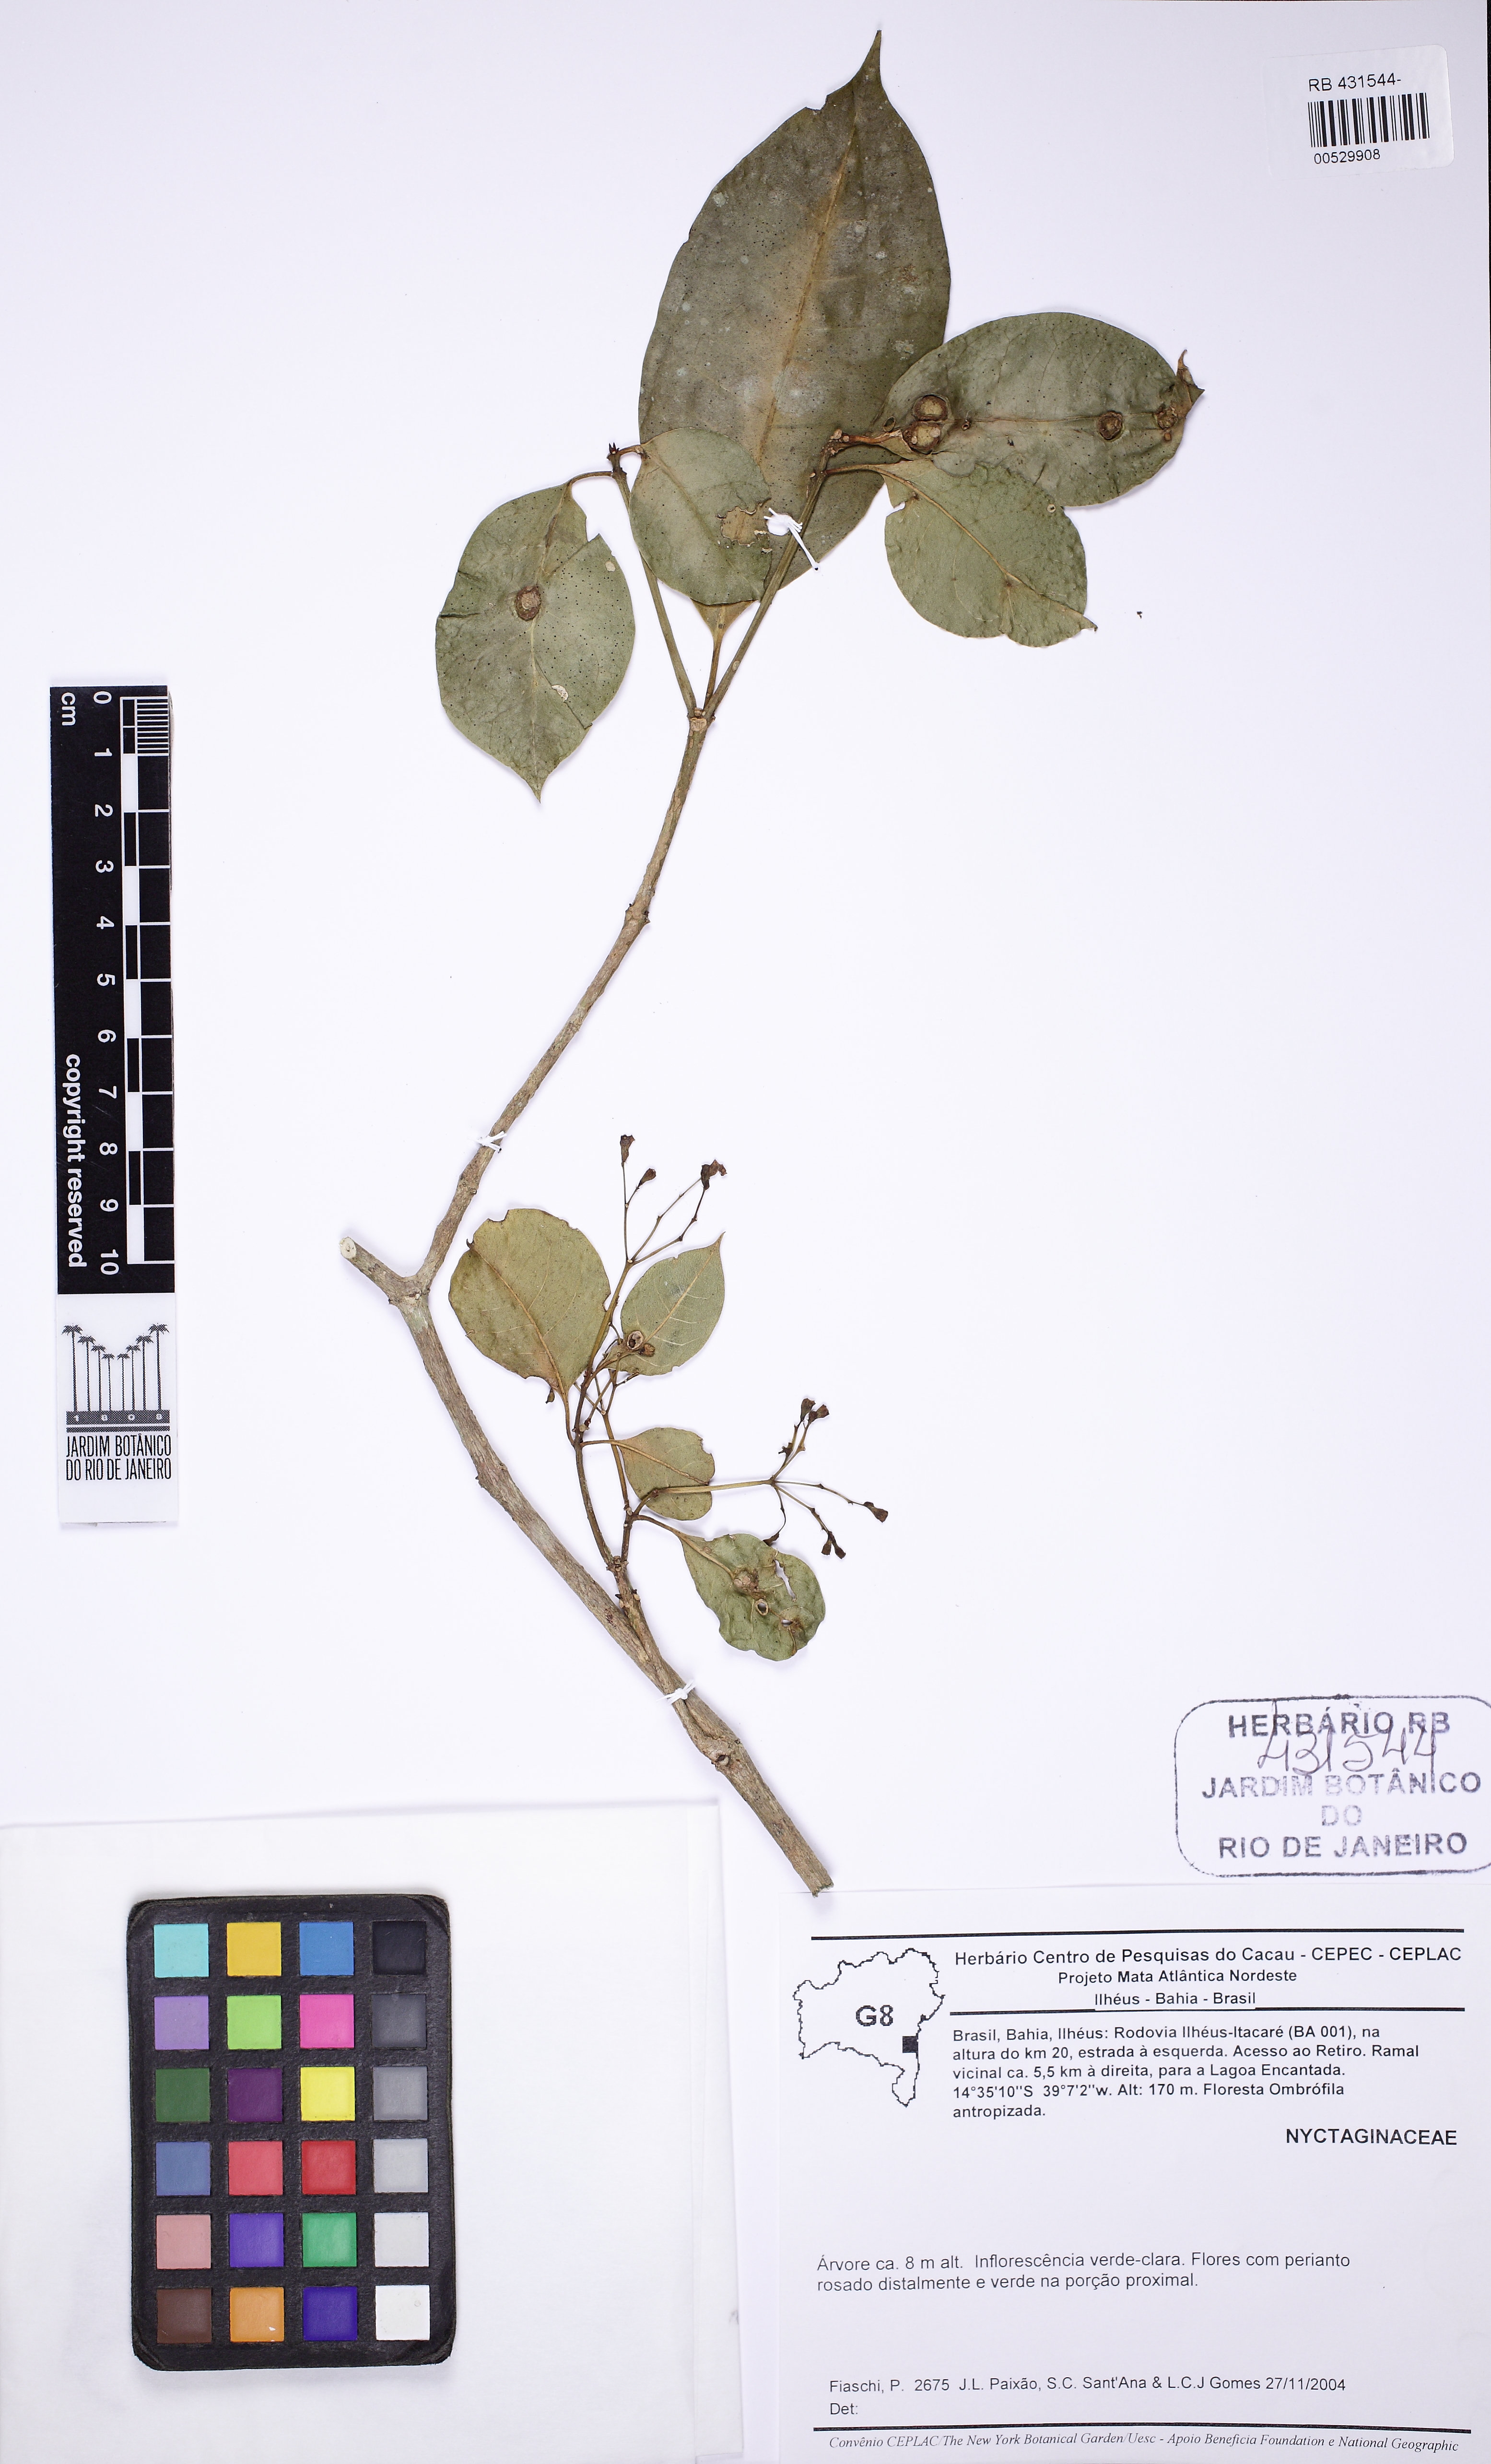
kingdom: Plantae
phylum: Tracheophyta
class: Magnoliopsida
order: Caryophyllales
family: Nyctaginaceae
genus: Guapira
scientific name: Guapira opposita
